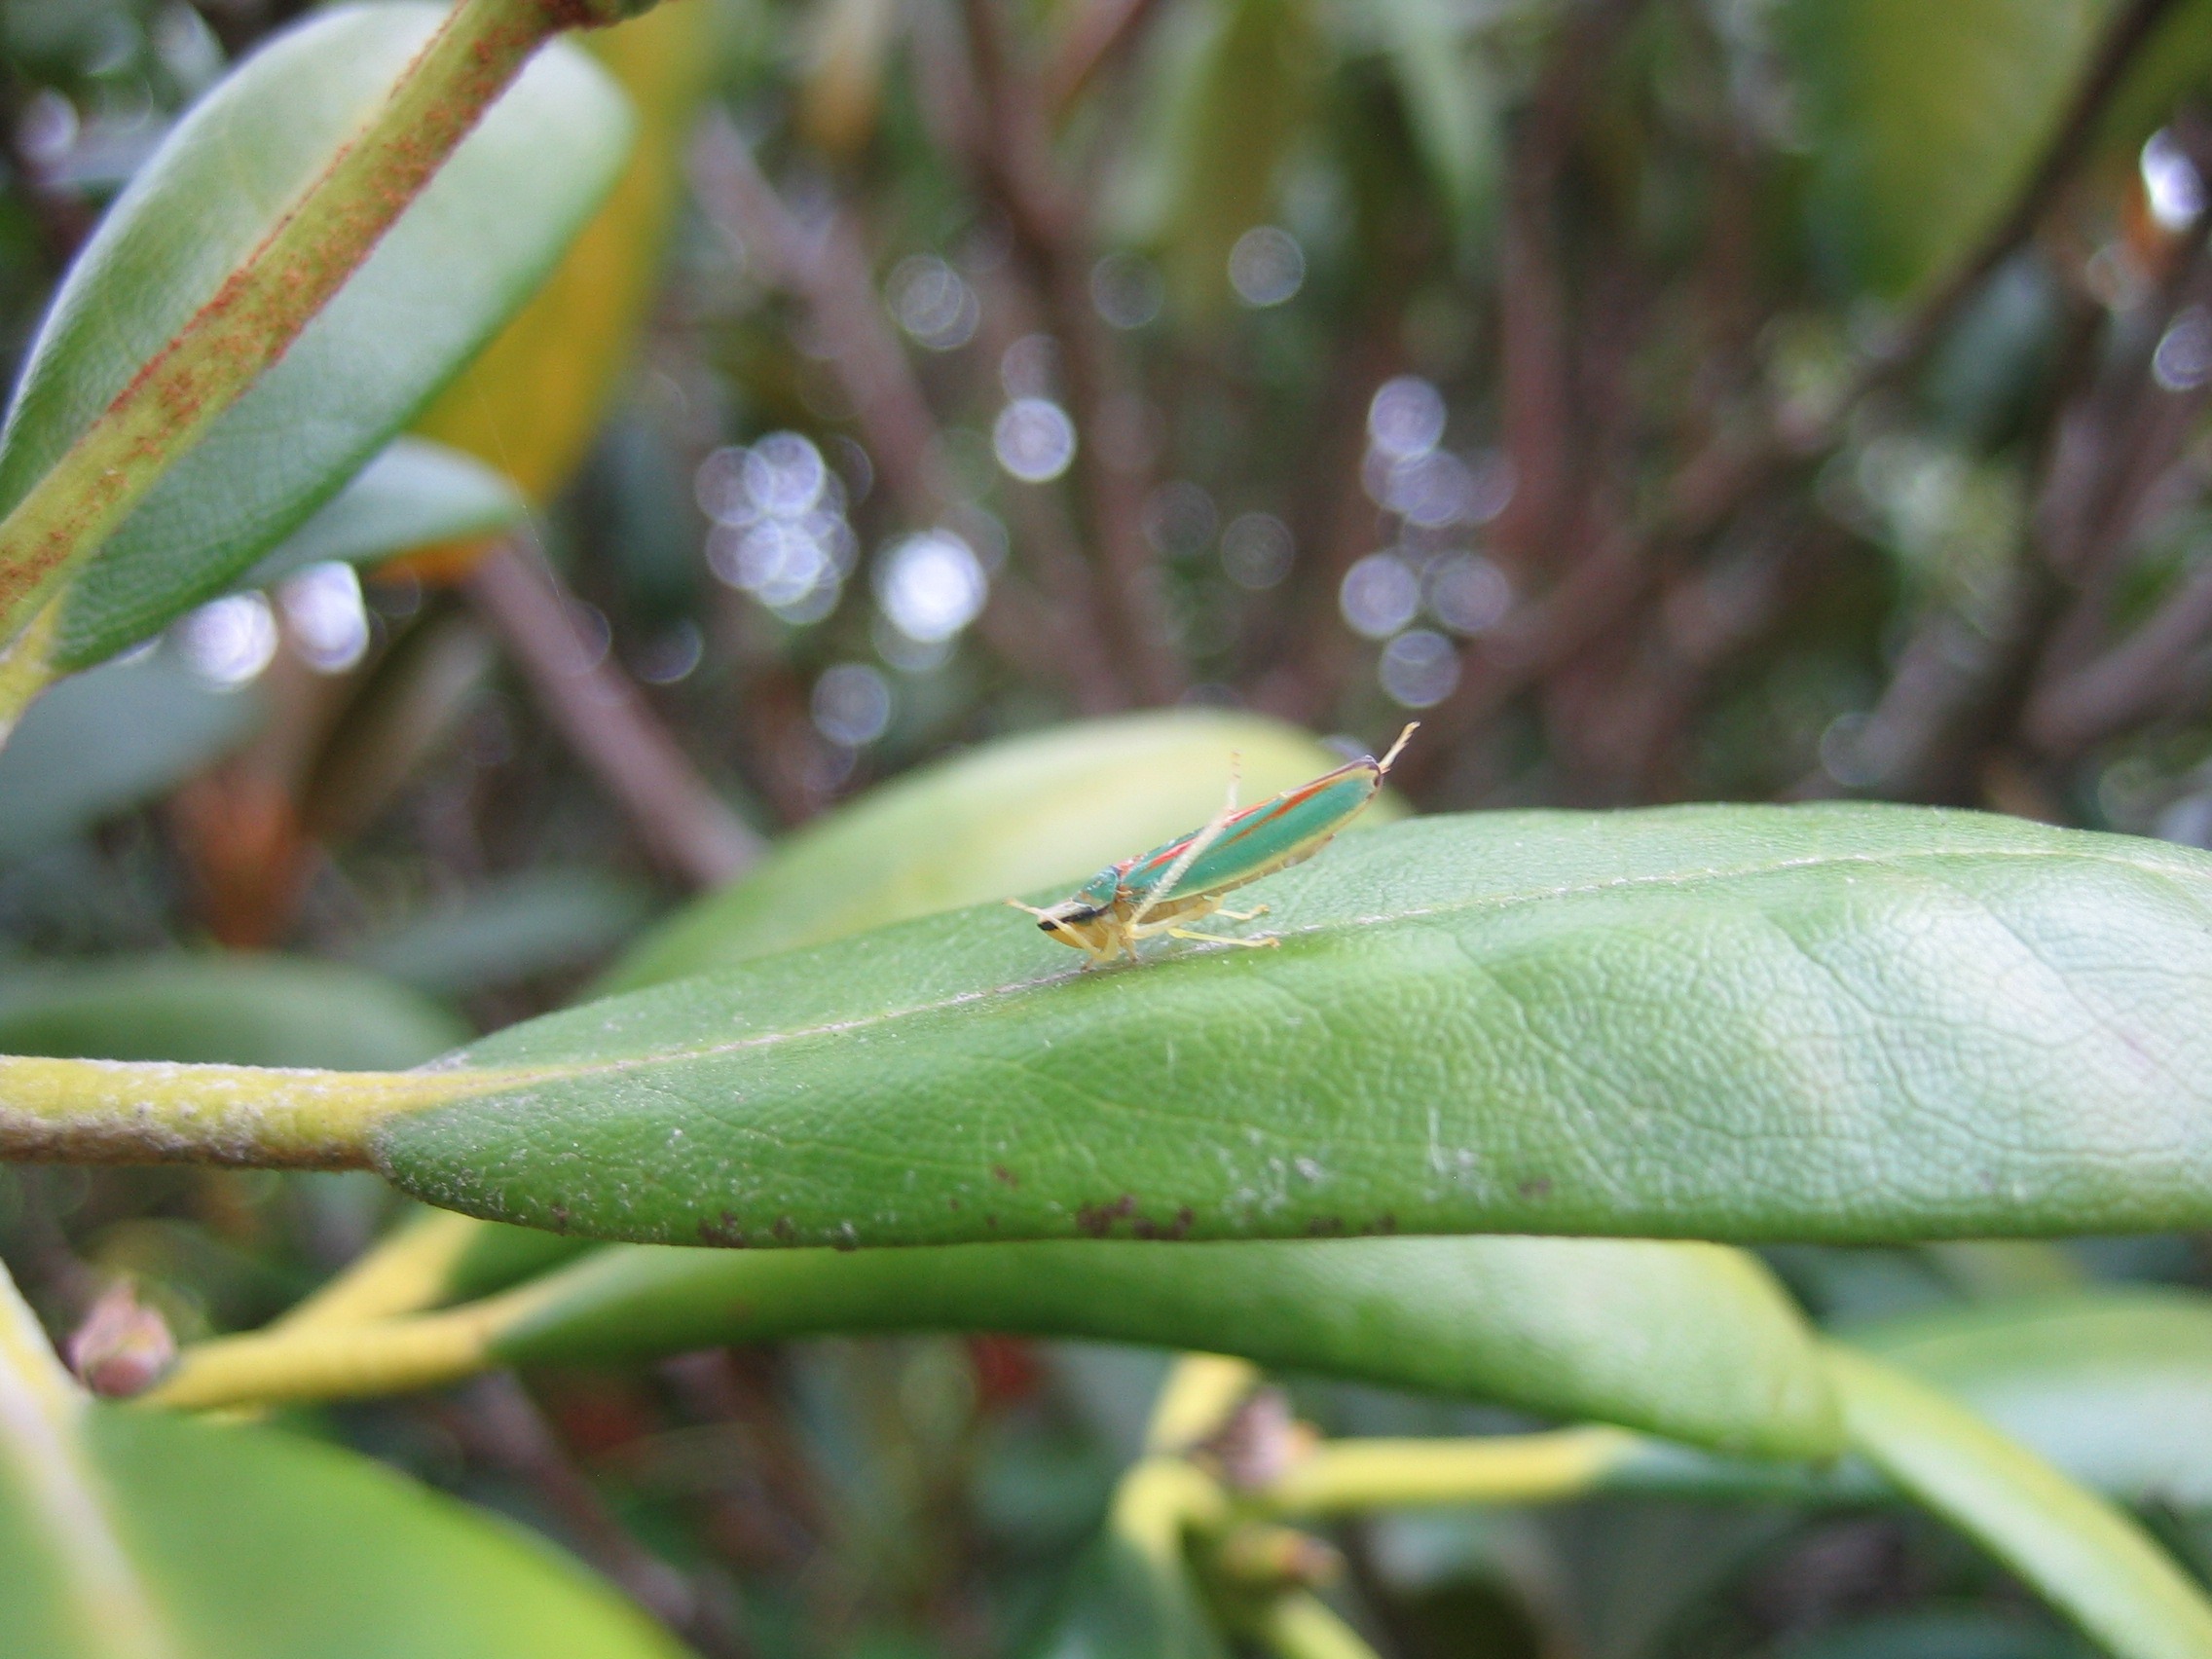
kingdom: Animalia
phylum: Arthropoda
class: Insecta
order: Hemiptera
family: Cicadellidae
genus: Graphocephala
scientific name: Graphocephala fennahi
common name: Rododendroncikade
